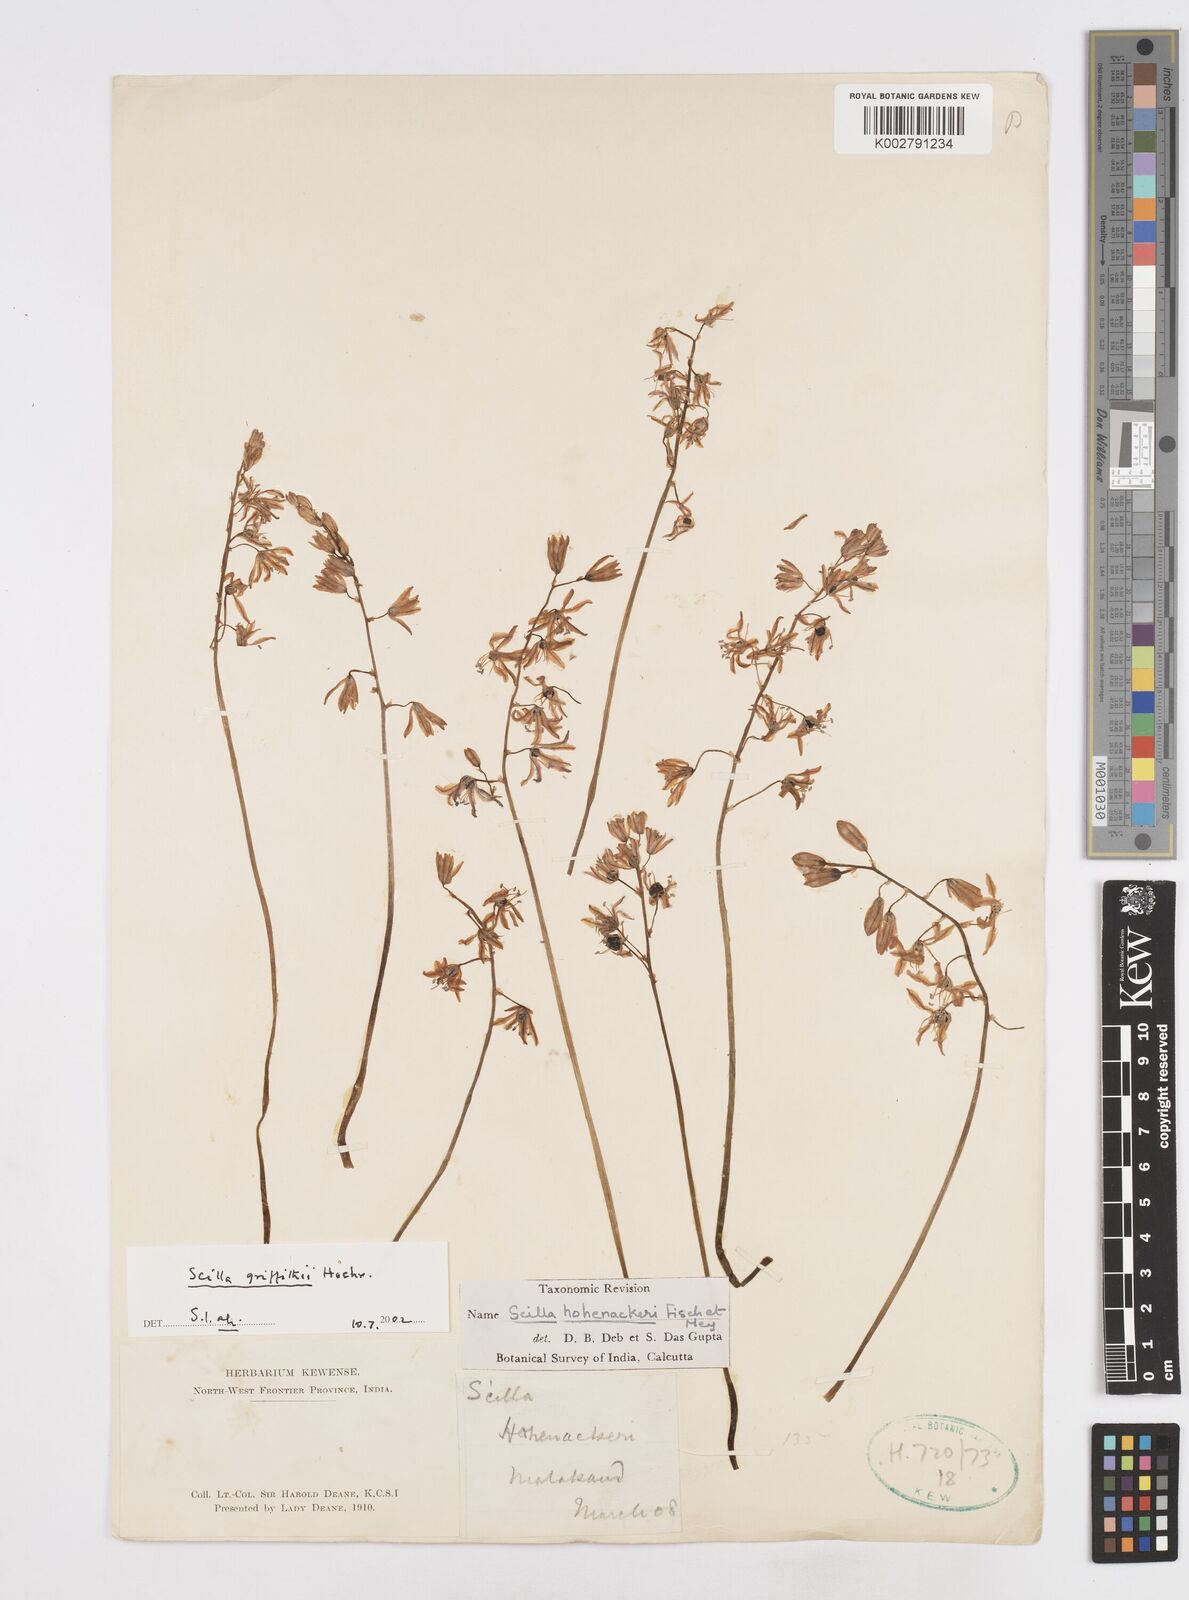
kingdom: Plantae
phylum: Tracheophyta
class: Liliopsida
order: Asparagales
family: Asparagaceae
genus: Scilla
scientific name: Scilla bifolia
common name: Alpine squill
